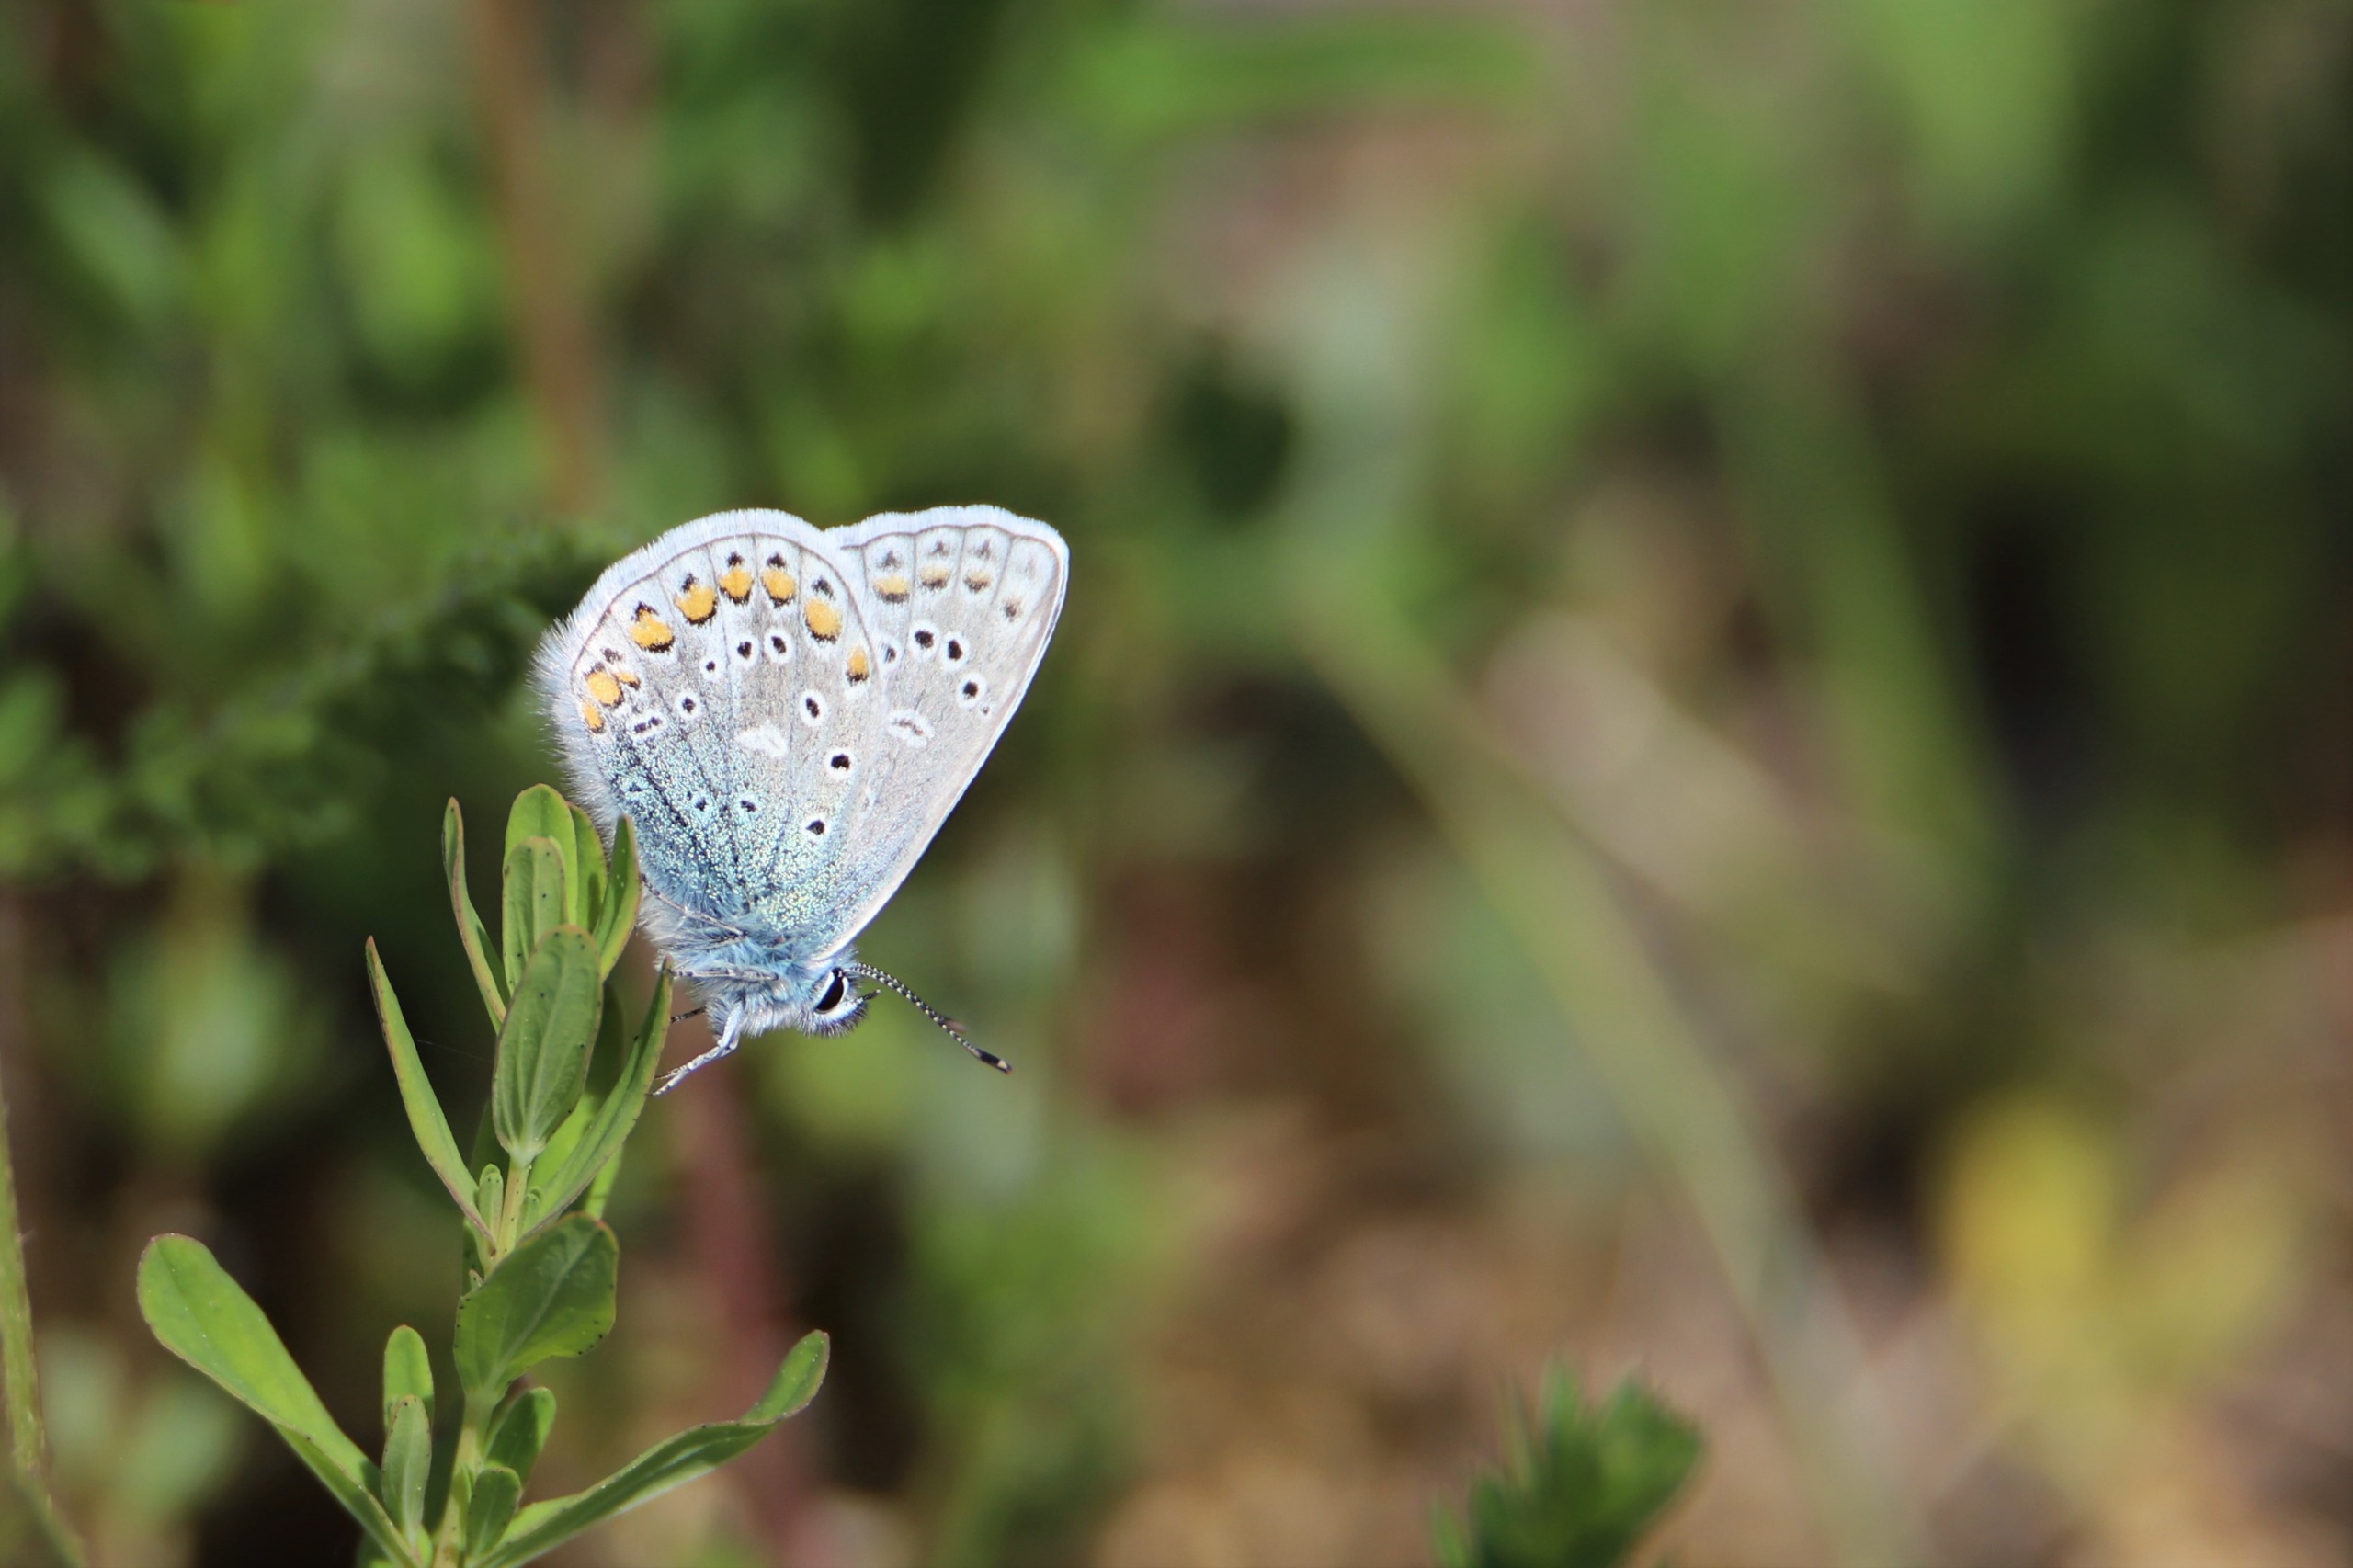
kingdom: Animalia
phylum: Arthropoda
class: Insecta
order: Lepidoptera
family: Lycaenidae
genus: Polyommatus
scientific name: Polyommatus icarus
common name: Almindelig blåfugl
